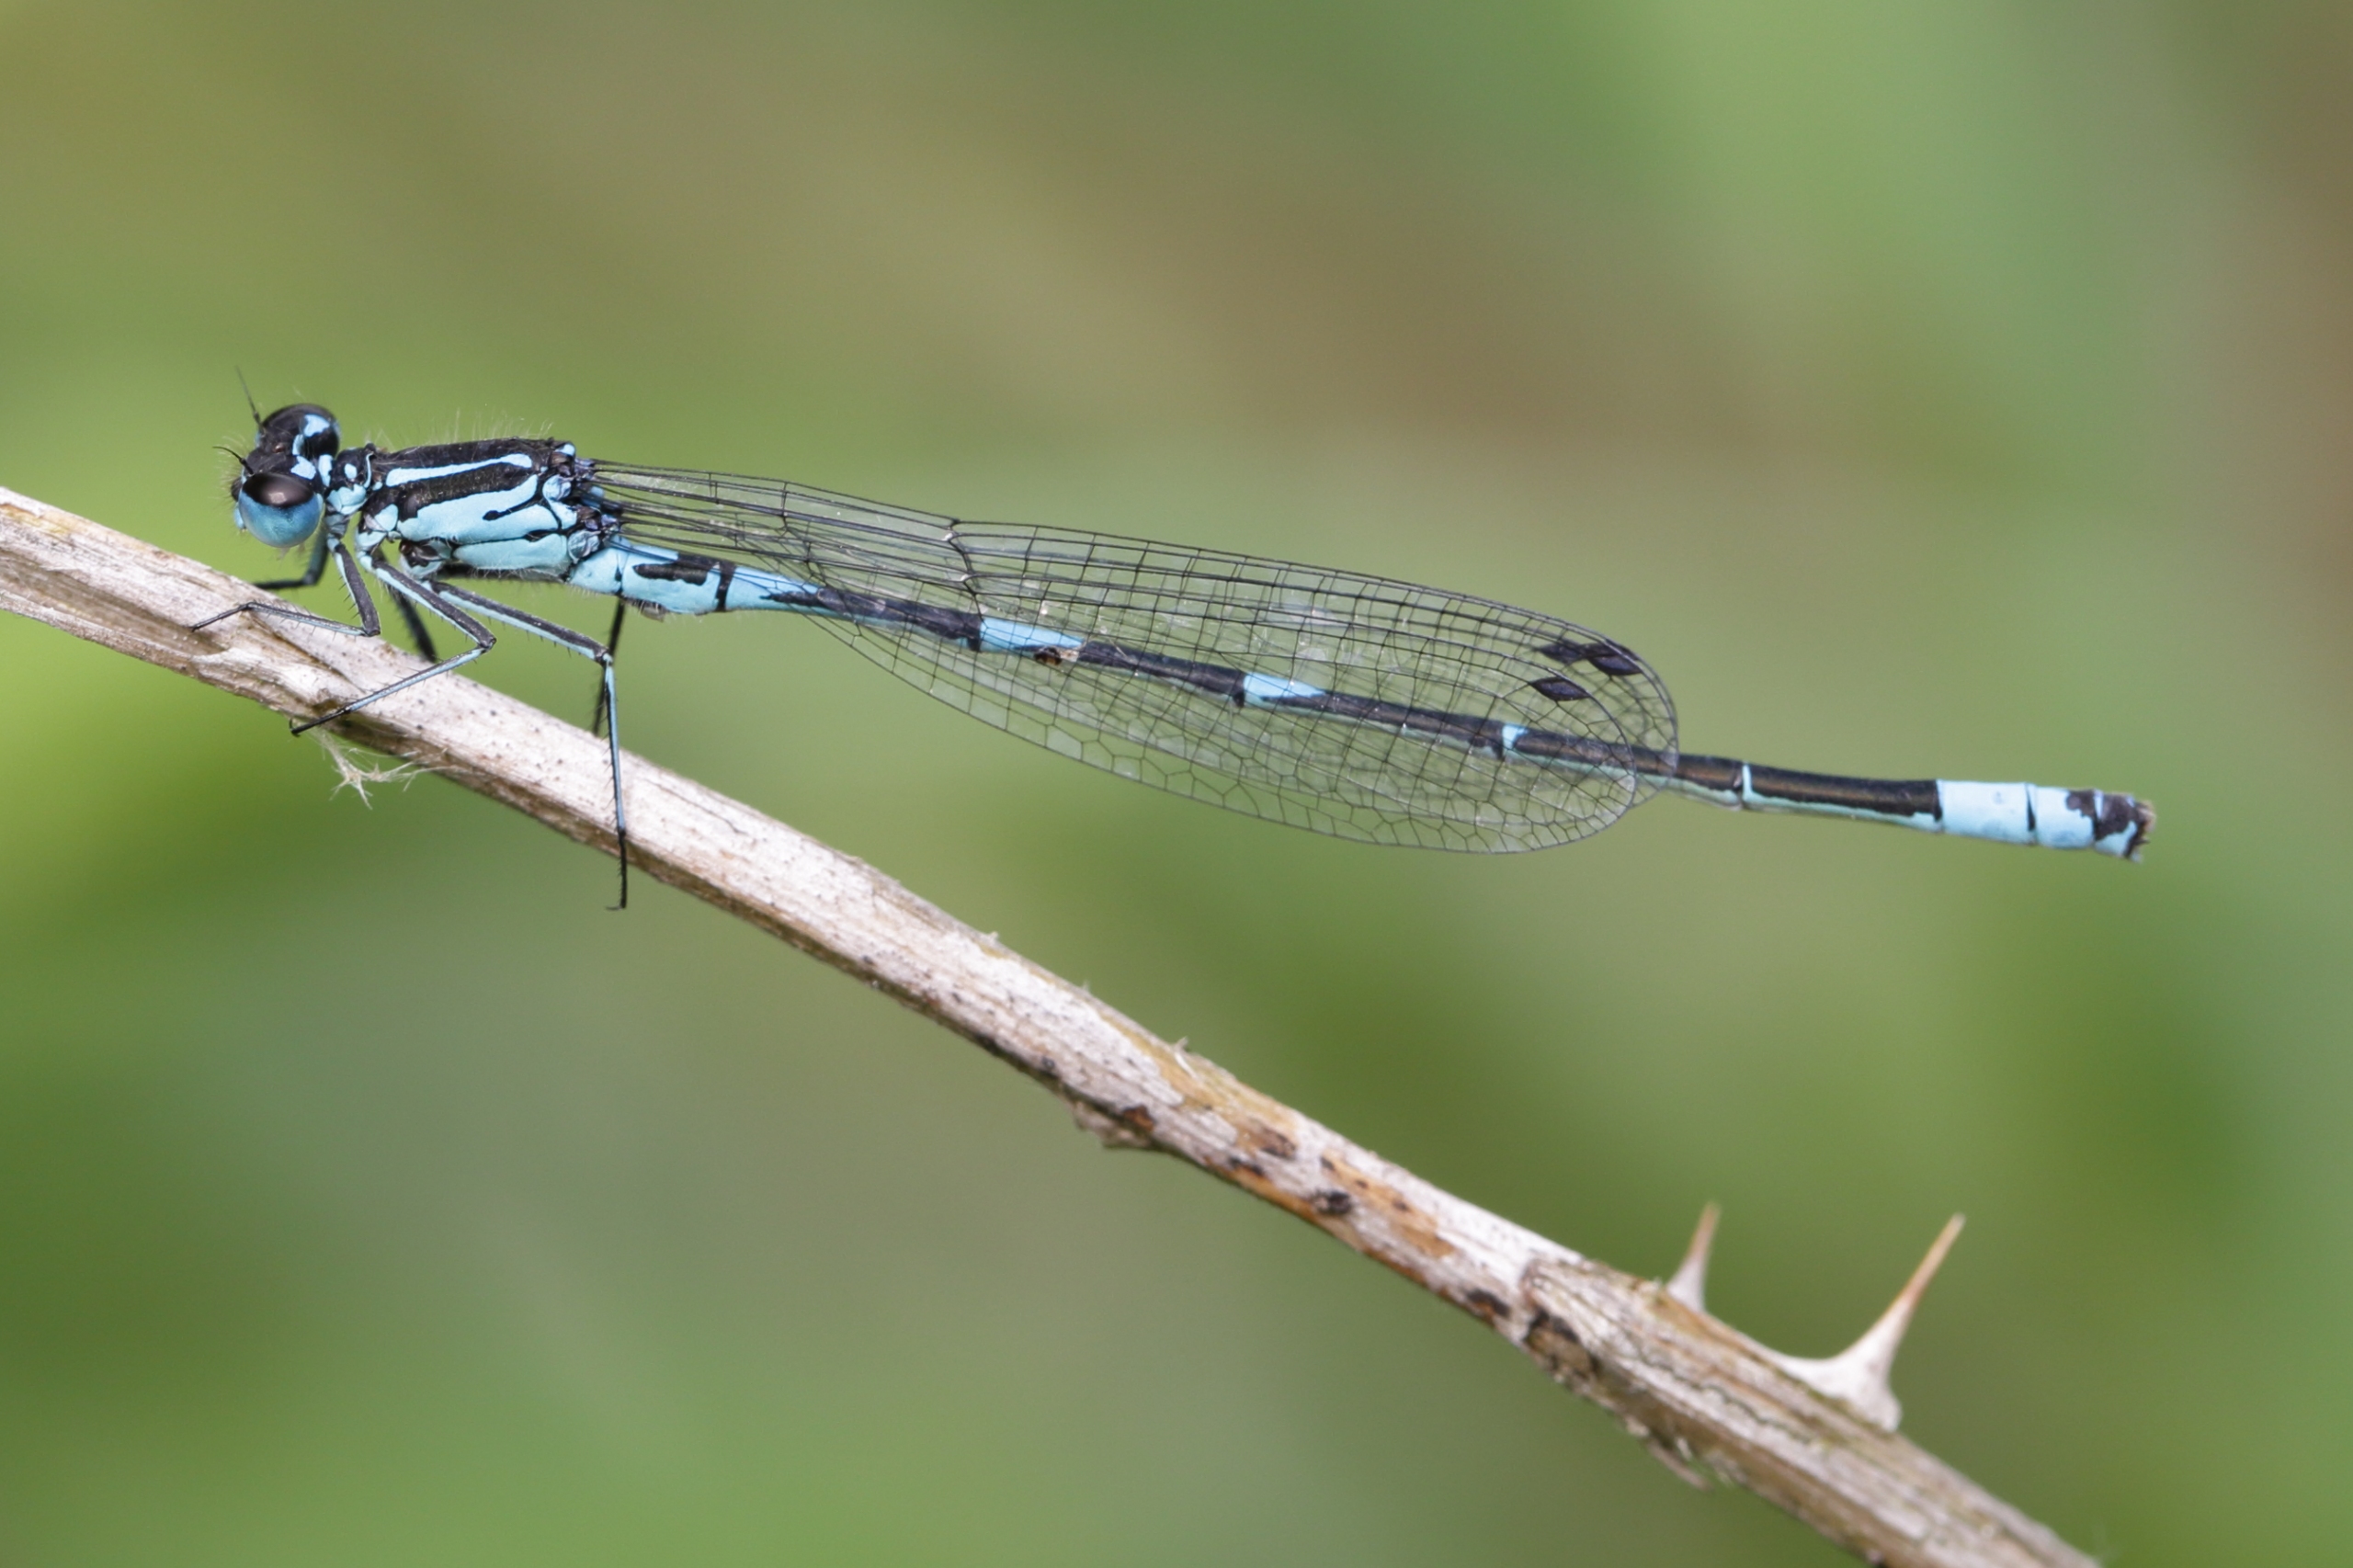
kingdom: Animalia
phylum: Arthropoda
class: Insecta
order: Odonata
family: Coenagrionidae
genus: Coenagrion
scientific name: Coenagrion pulchellum
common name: Flagermus-vandnymfe
